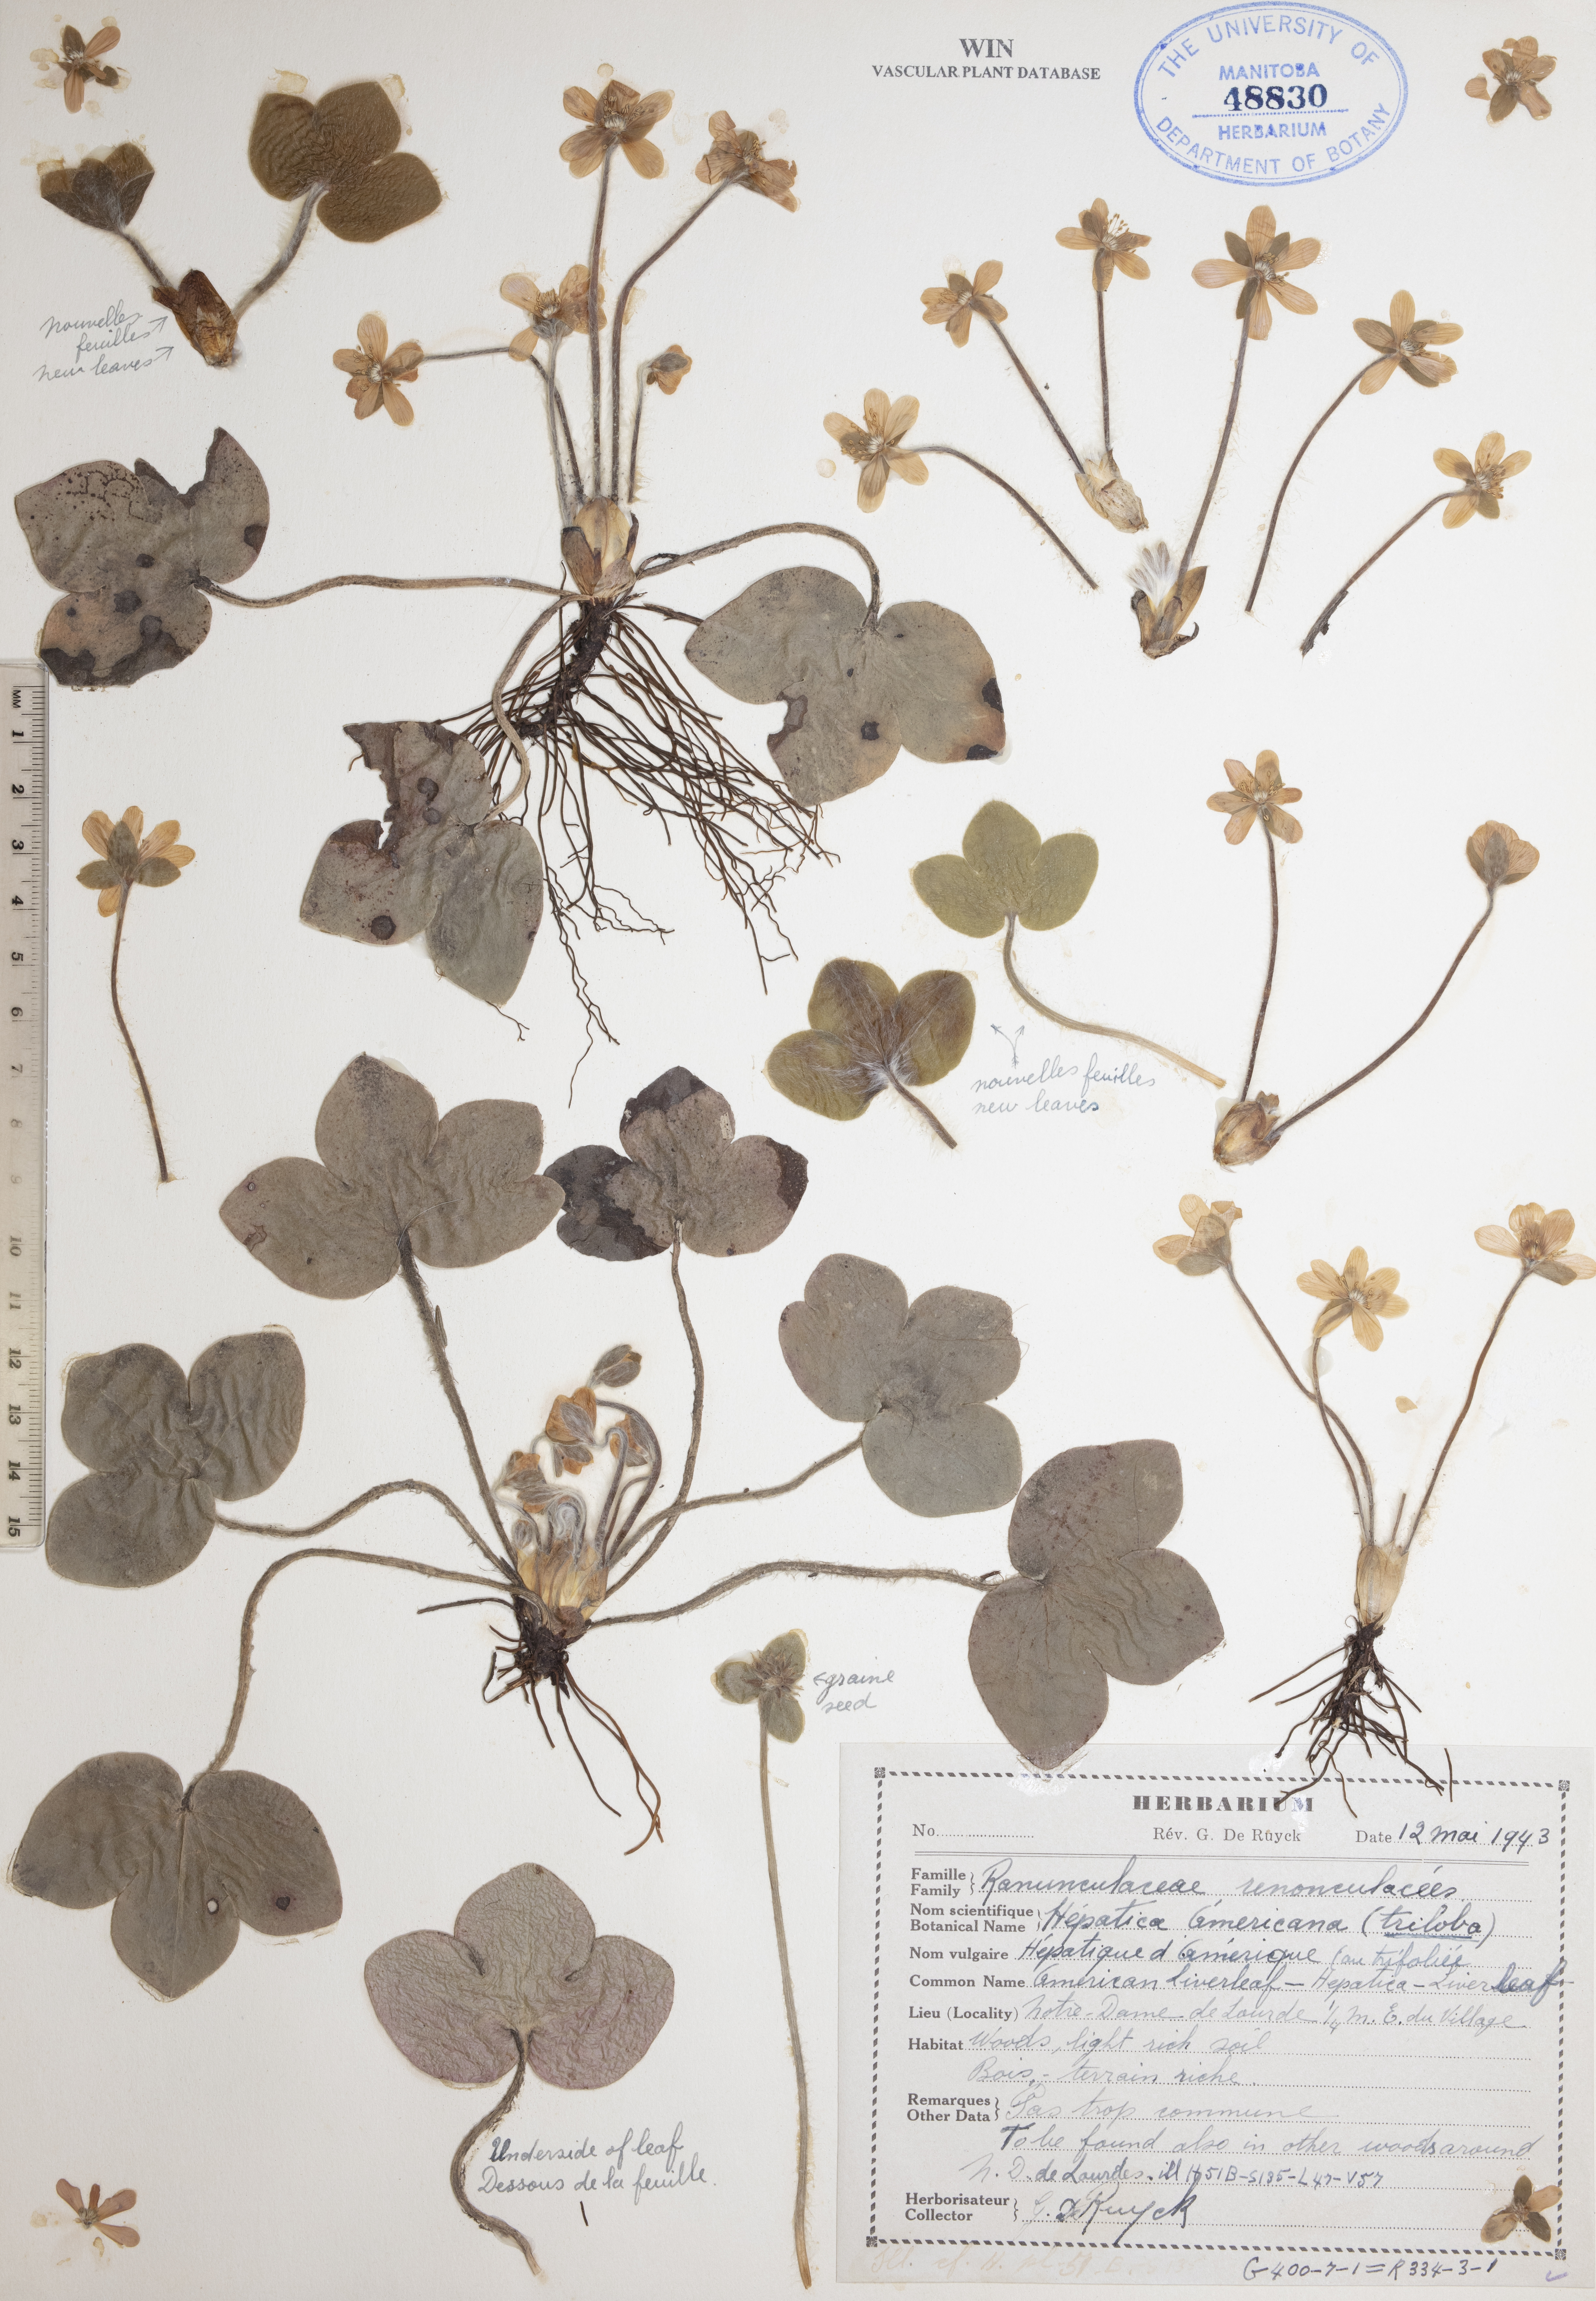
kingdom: Plantae
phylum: Tracheophyta
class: Magnoliopsida
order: Ranunculales
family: Ranunculaceae
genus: Hepatica
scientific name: Hepatica americana
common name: American hepatica
